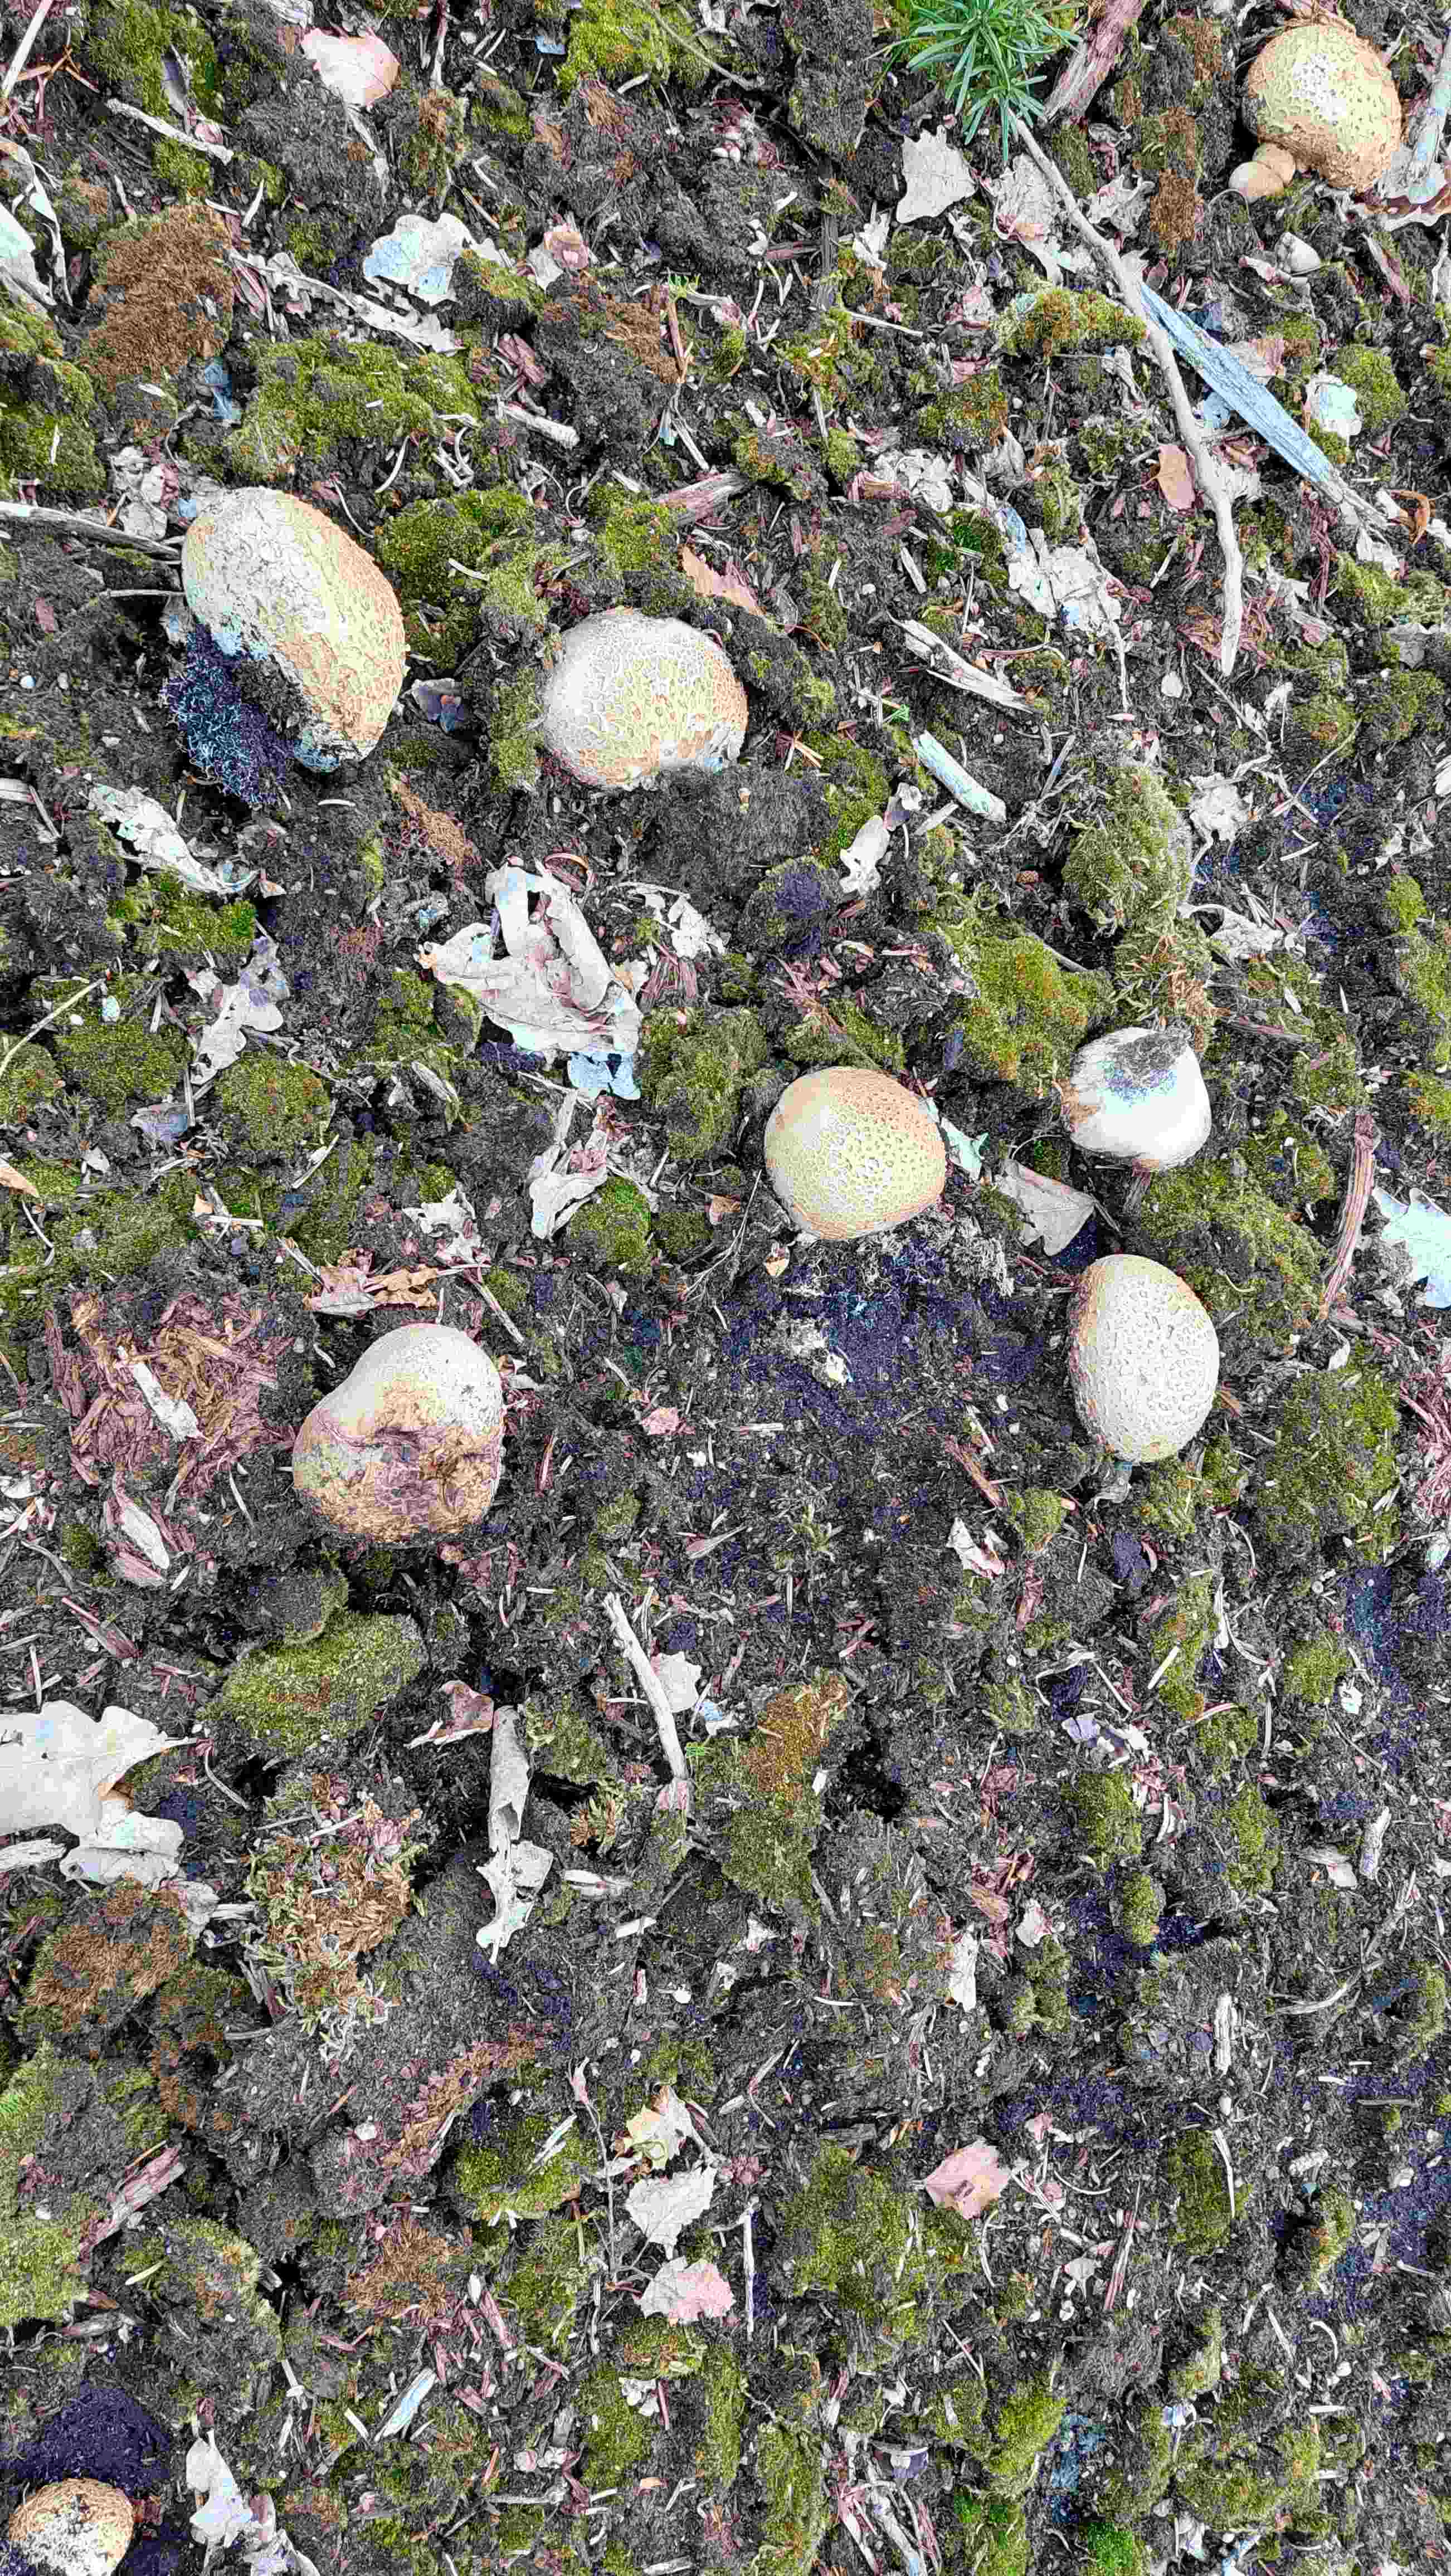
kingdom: Fungi
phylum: Basidiomycota
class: Agaricomycetes
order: Boletales
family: Sclerodermataceae
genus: Scleroderma
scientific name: Scleroderma citrinum
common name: almindelig bruskbold
